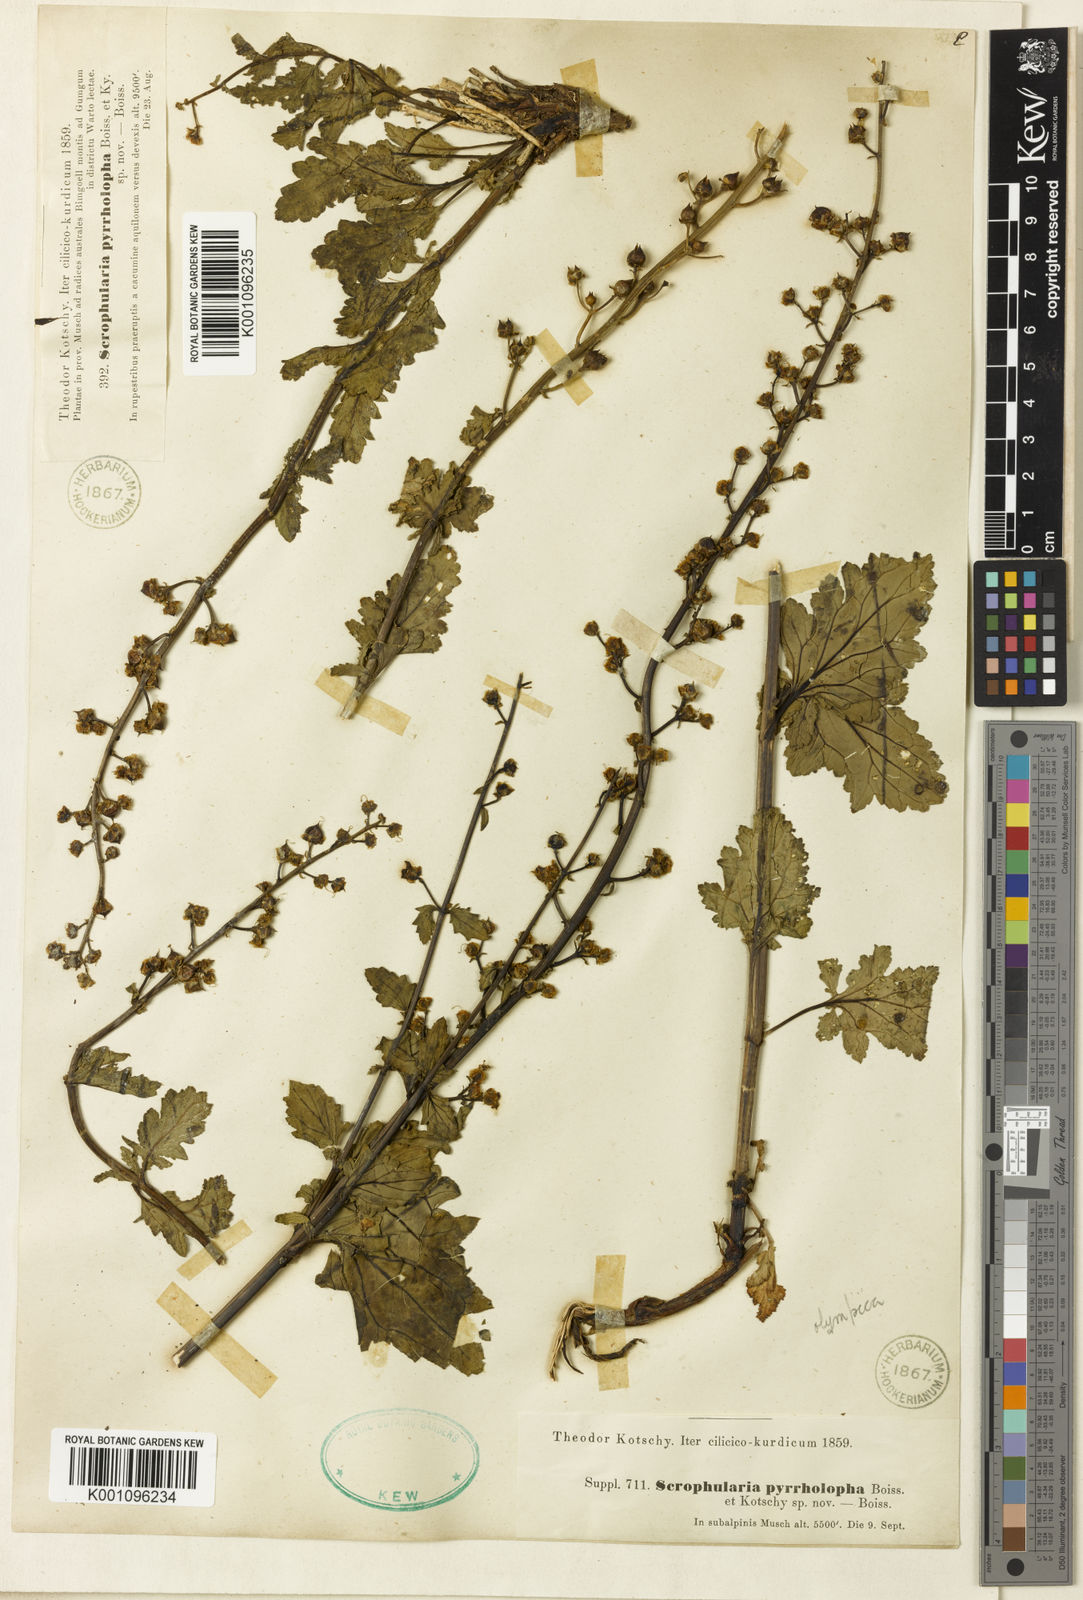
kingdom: Plantae
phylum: Tracheophyta
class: Magnoliopsida
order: Lamiales
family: Scrophulariaceae
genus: Scrophularia
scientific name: Scrophularia olympica
